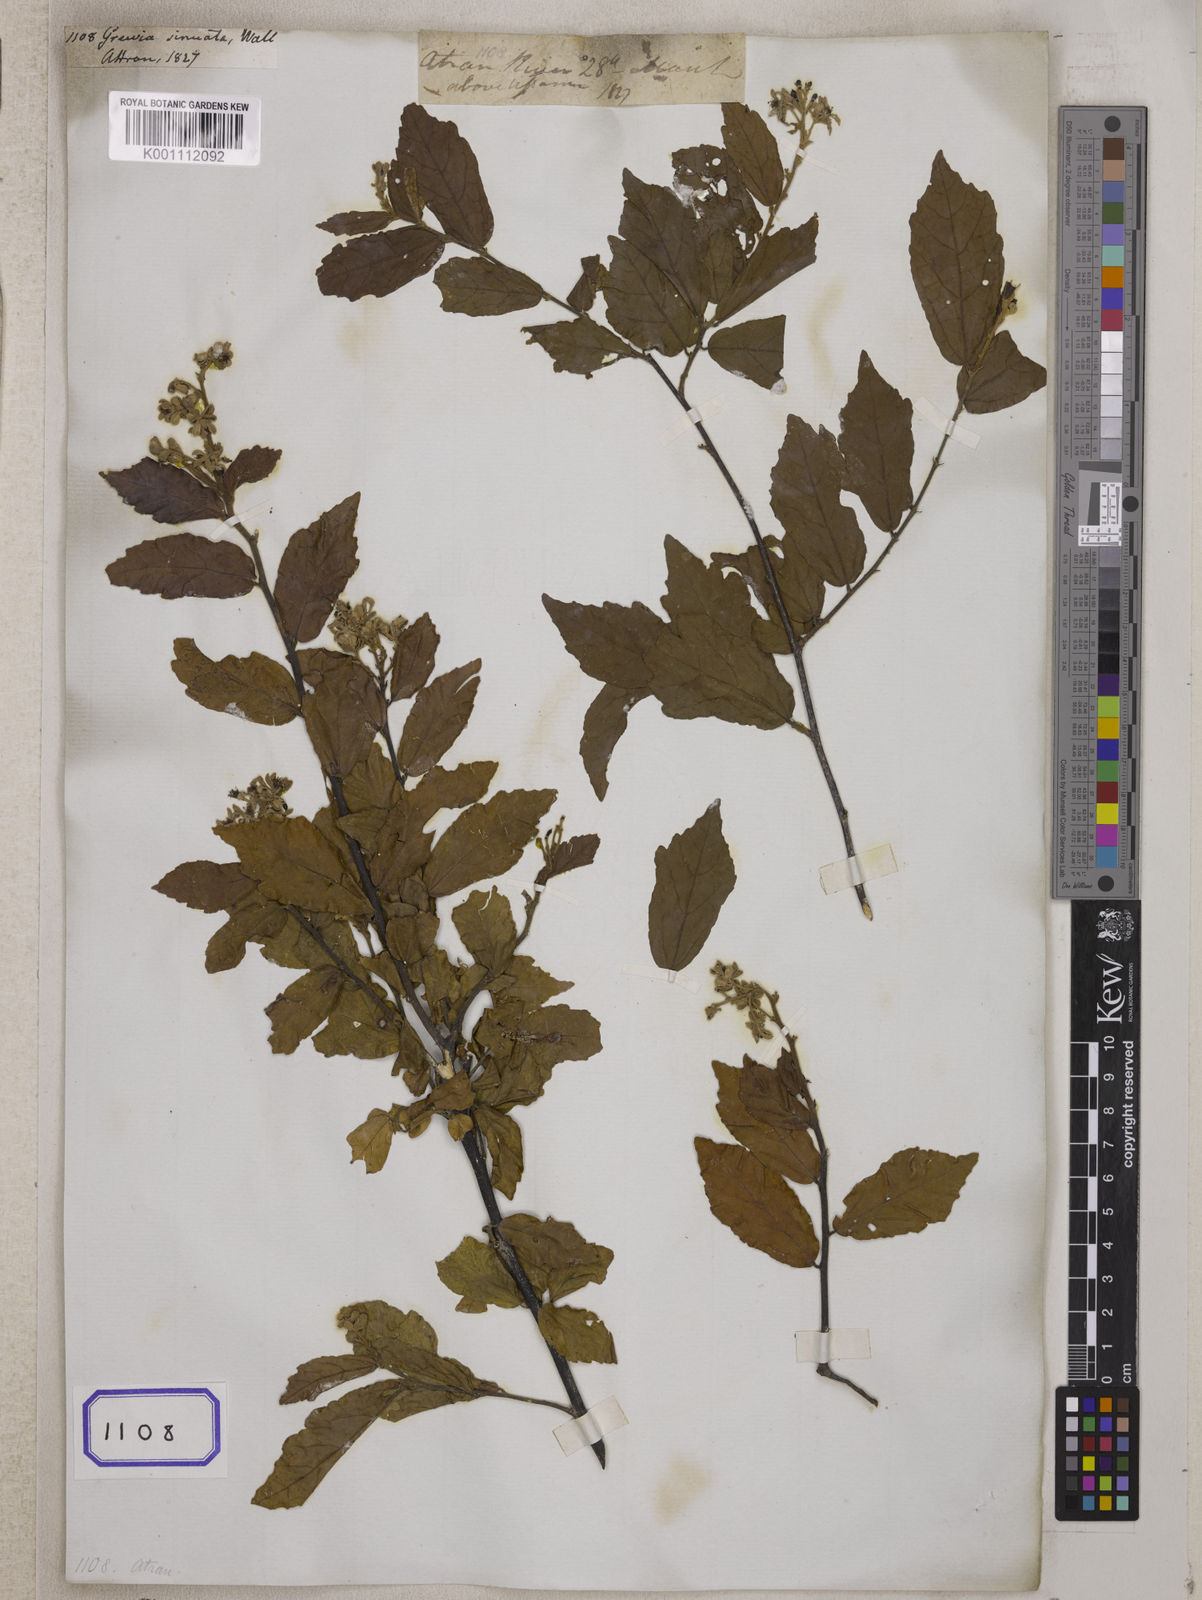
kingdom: Plantae
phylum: Tracheophyta
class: Magnoliopsida
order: Malvales
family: Malvaceae
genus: Grewia
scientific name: Grewia
